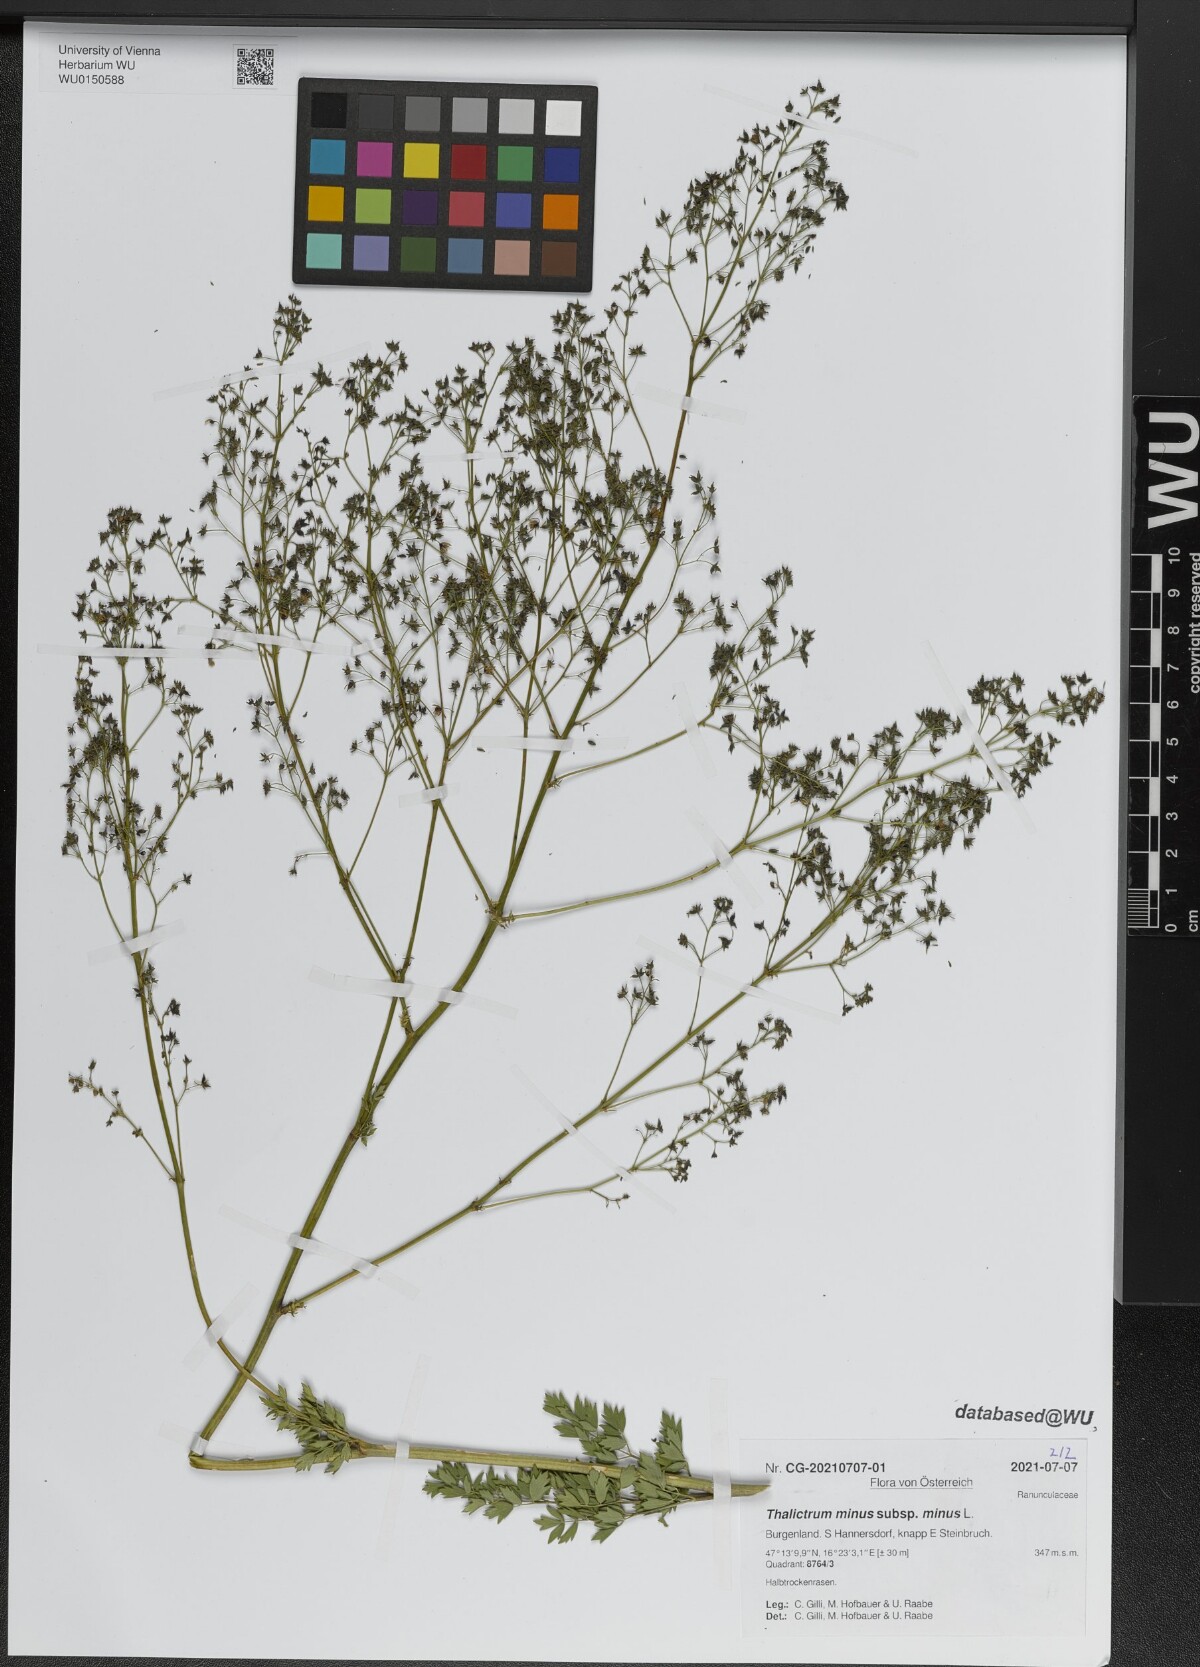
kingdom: Plantae
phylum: Tracheophyta
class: Magnoliopsida
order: Ranunculales
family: Ranunculaceae
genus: Thalictrum
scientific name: Thalictrum minus
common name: Lesser meadow-rue
